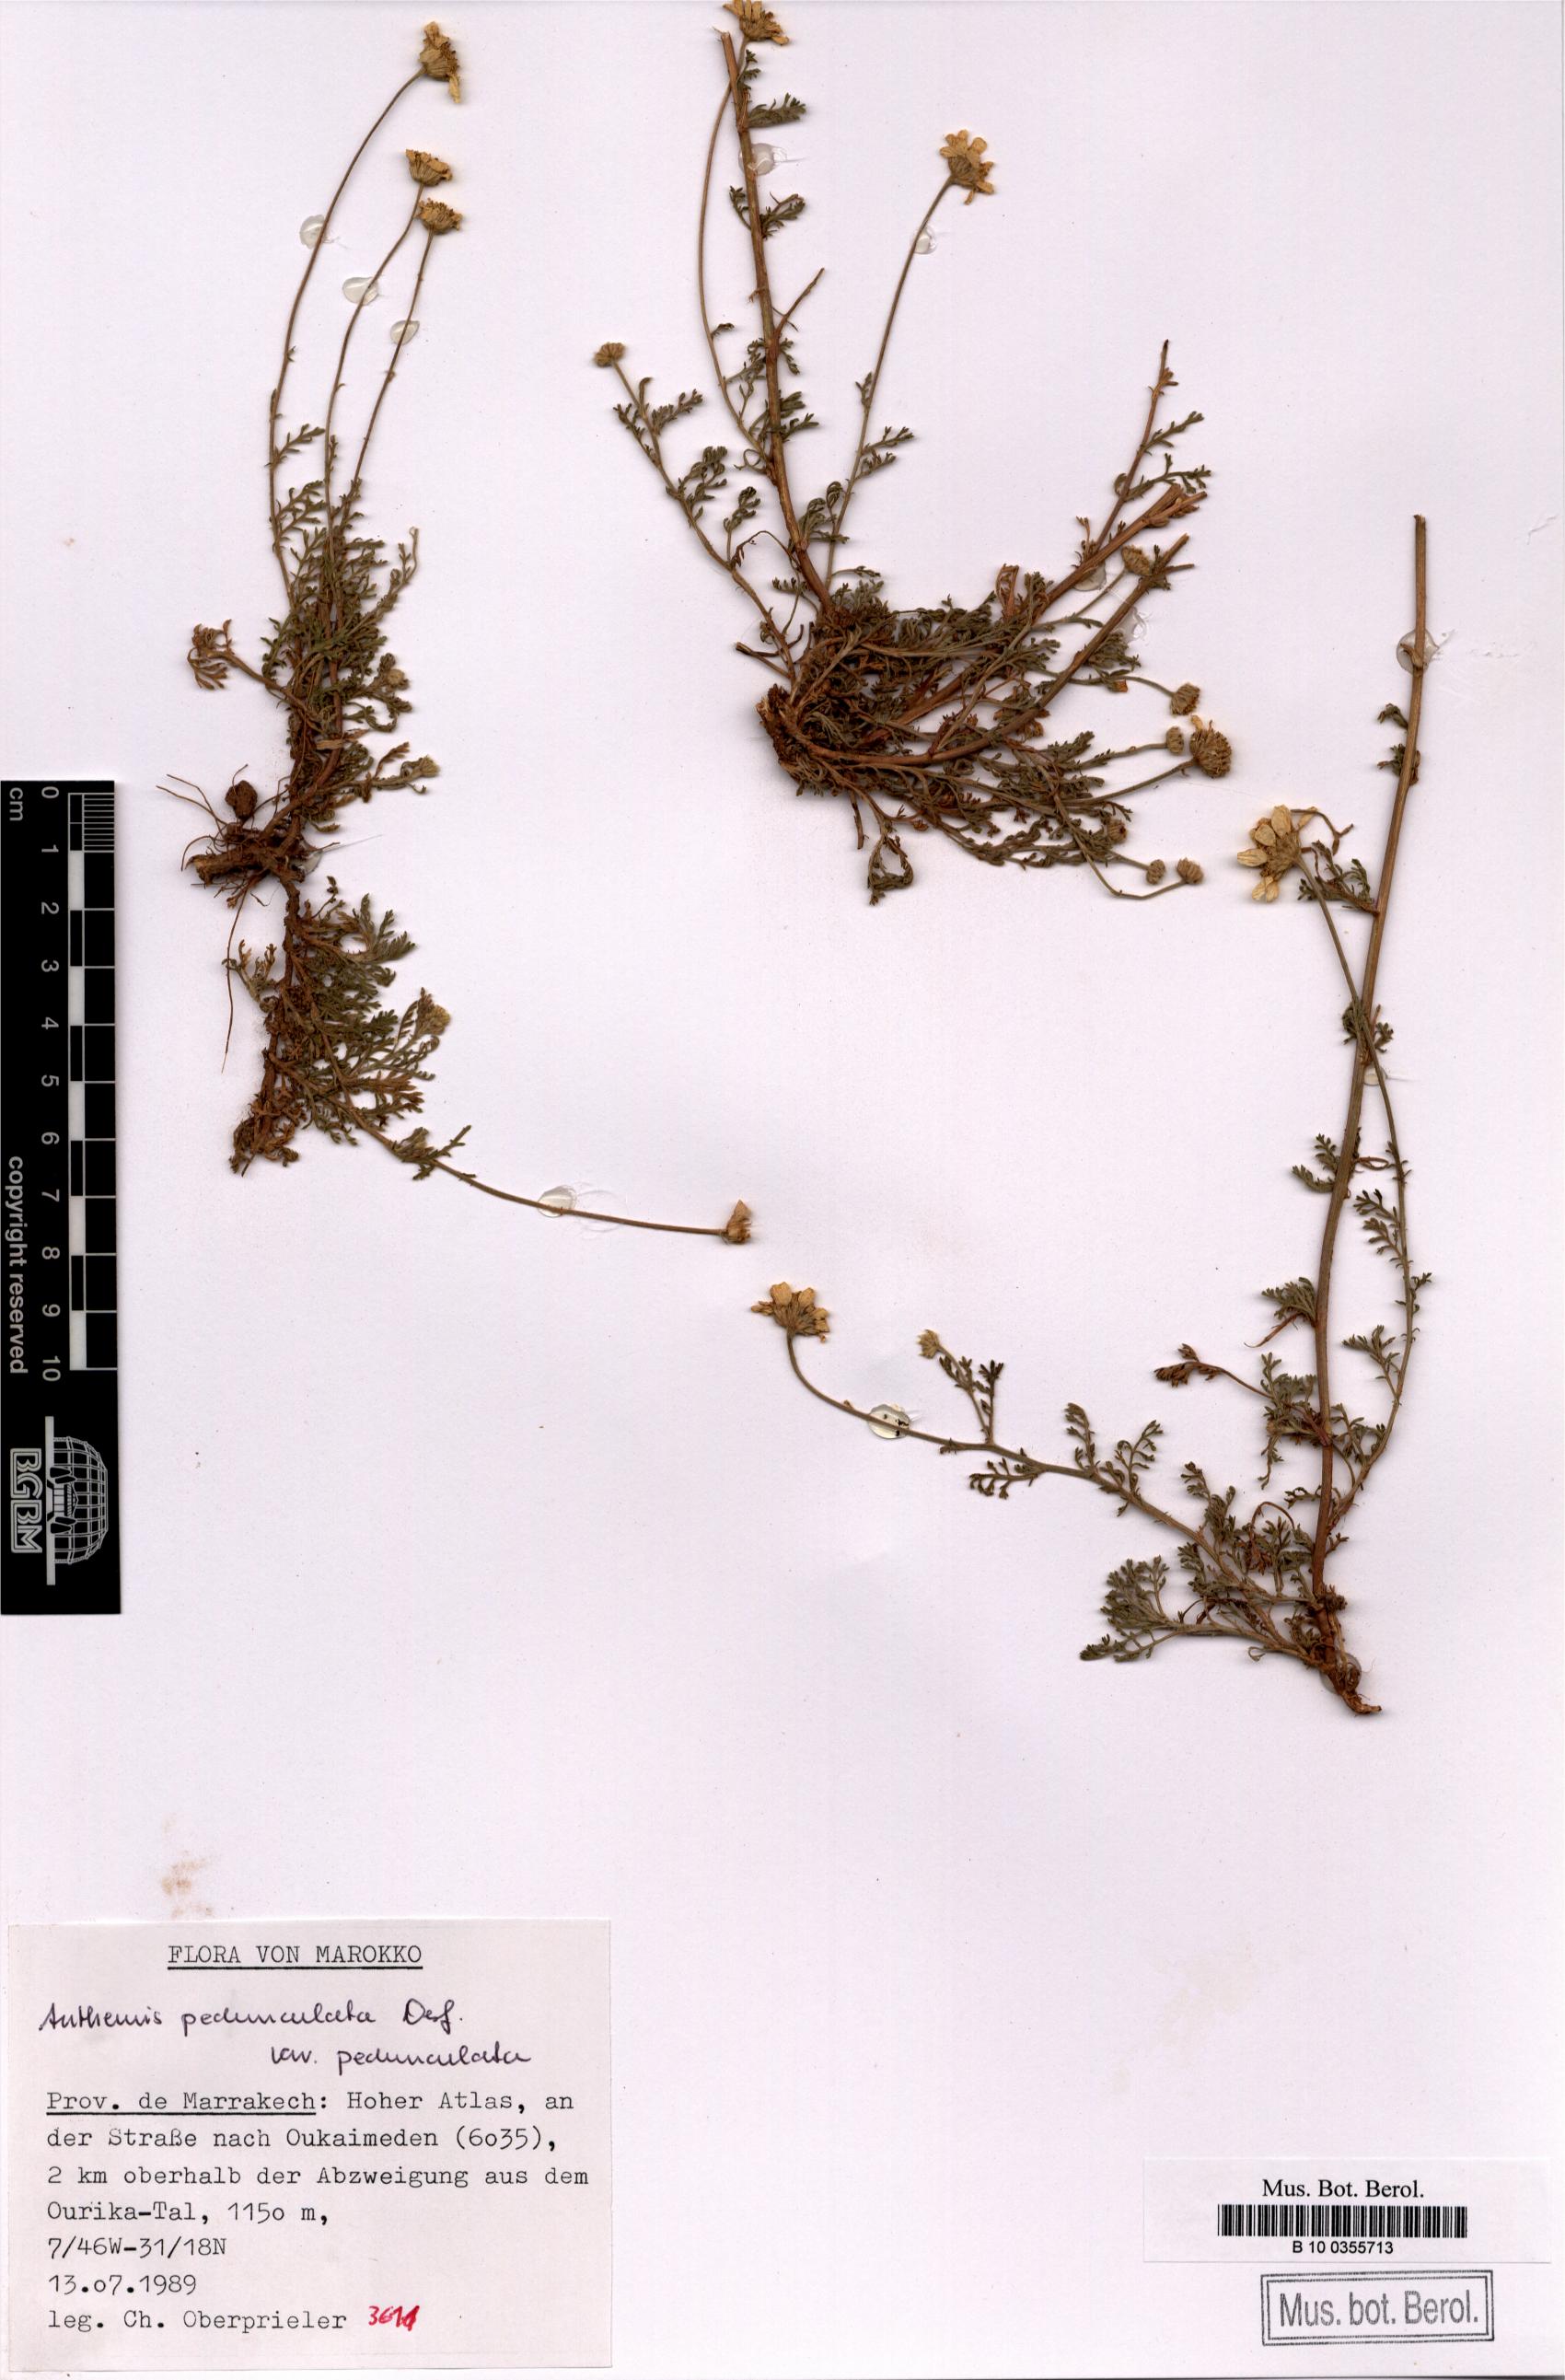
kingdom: Plantae
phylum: Tracheophyta
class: Magnoliopsida
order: Asterales
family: Asteraceae
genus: Anthemis
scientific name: Anthemis pedunculata
